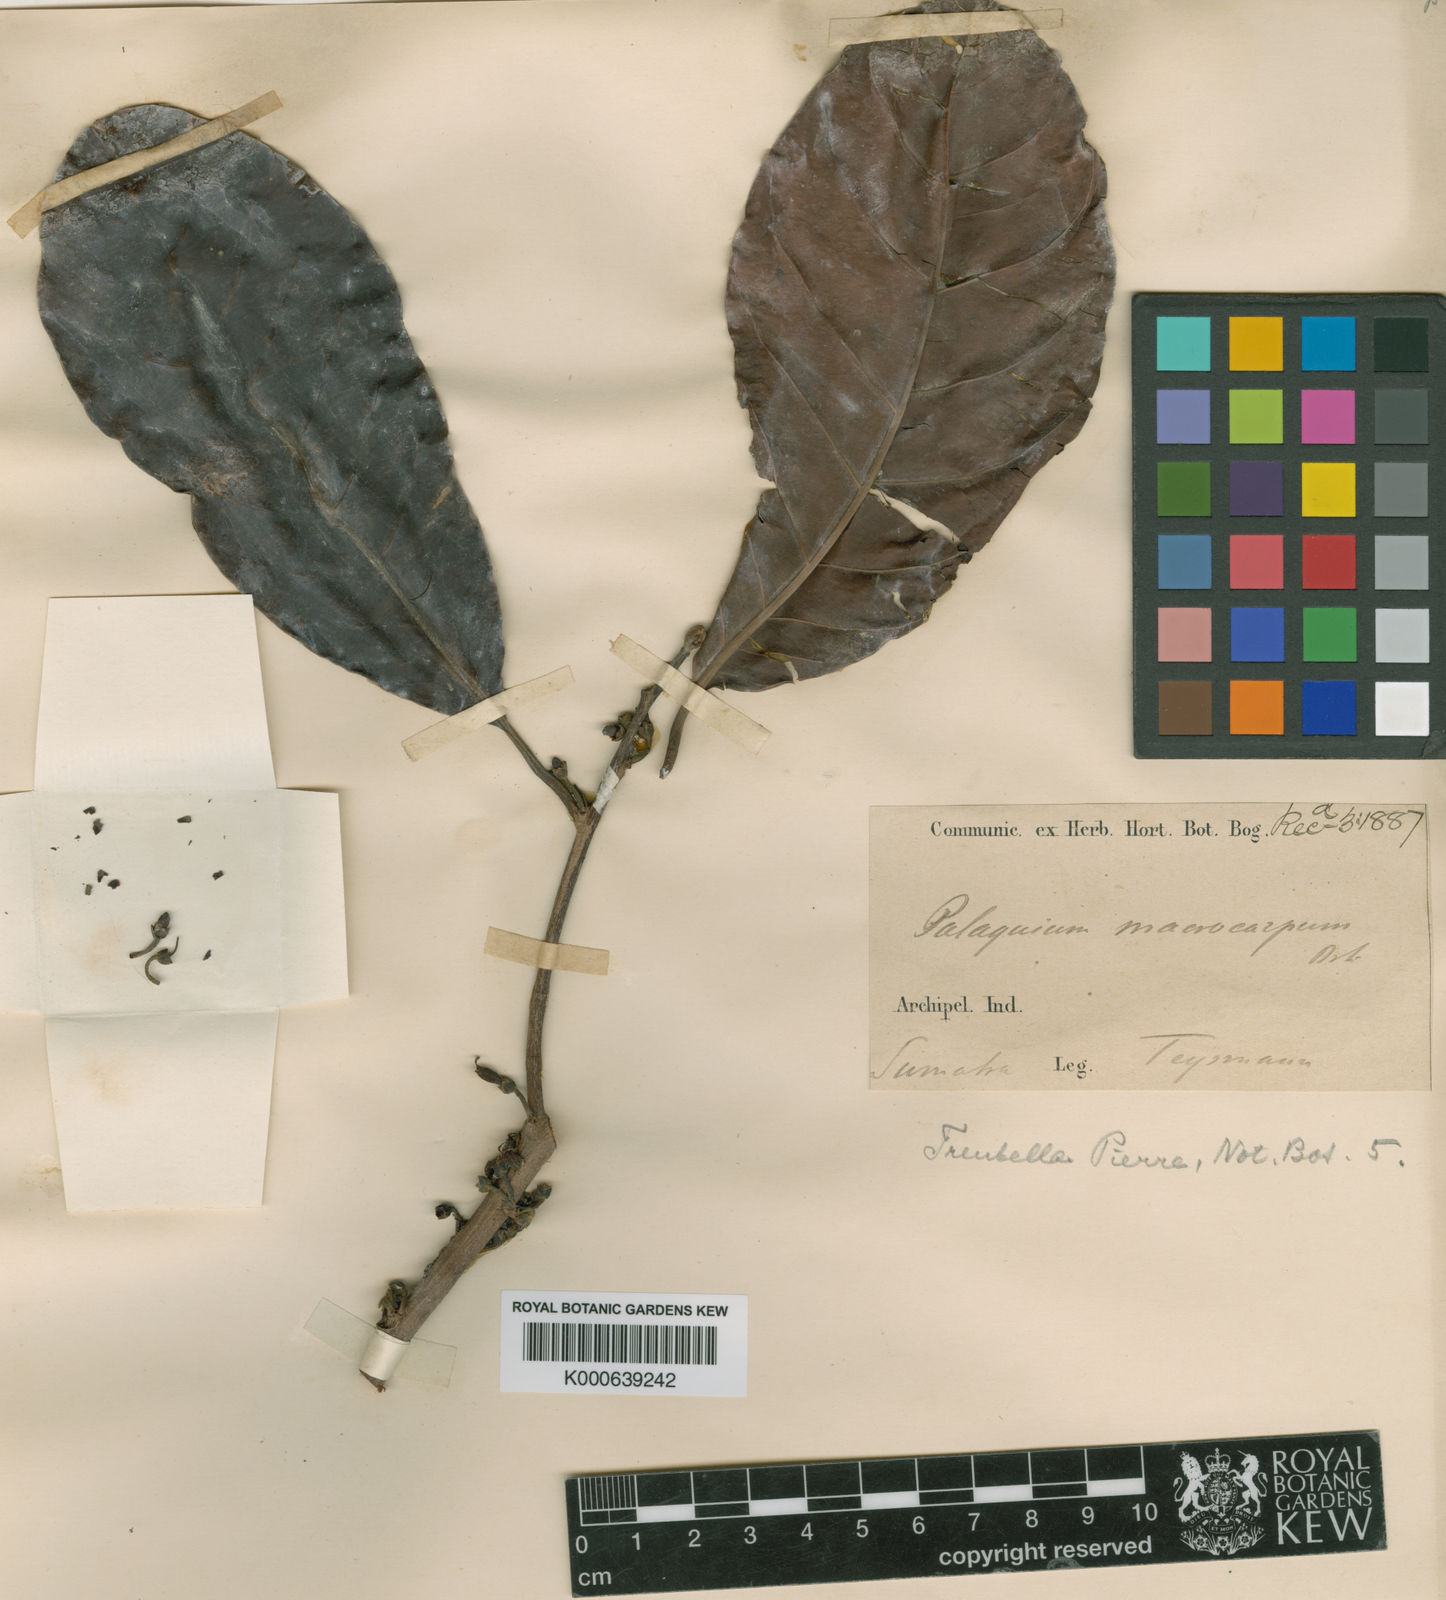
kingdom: Plantae
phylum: Tracheophyta
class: Magnoliopsida
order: Ericales
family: Sapotaceae
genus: Palaquium
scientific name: Palaquium macrocarpum
